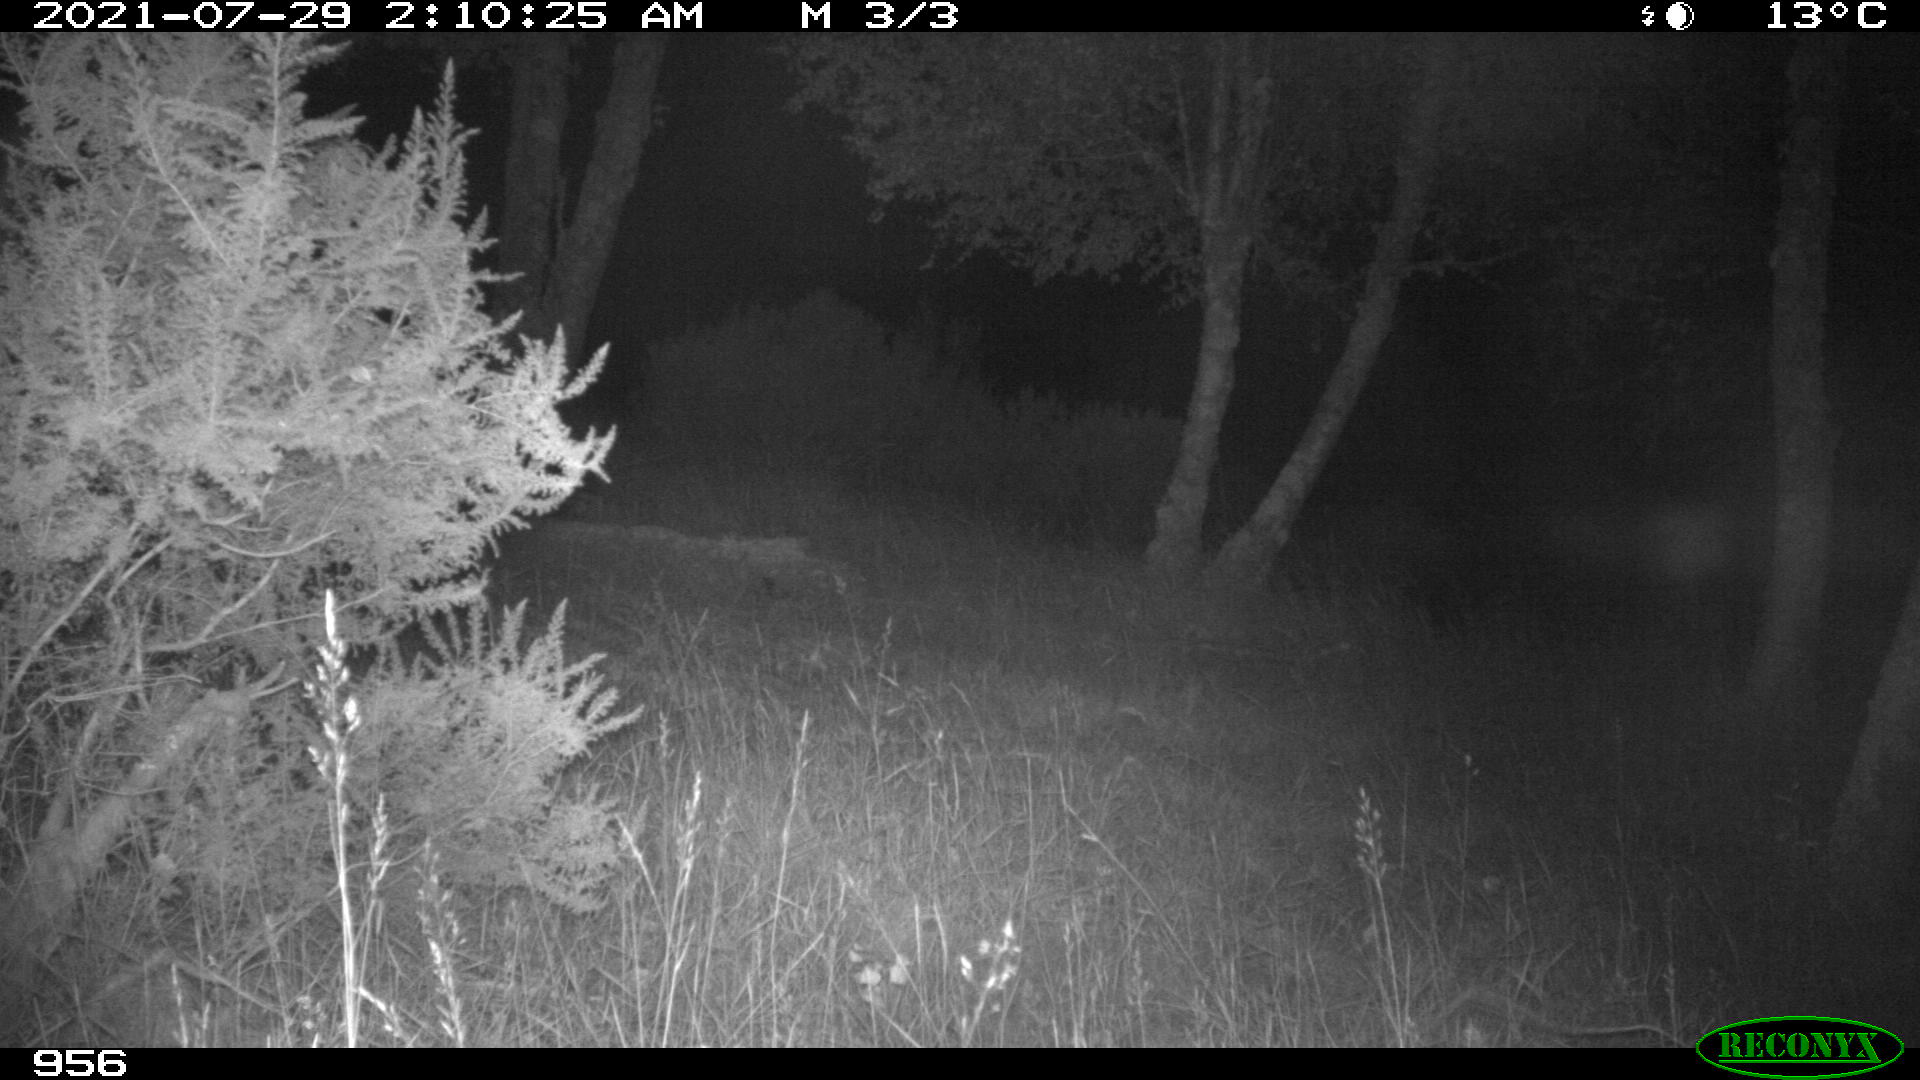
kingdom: Animalia
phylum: Chordata
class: Mammalia
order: Artiodactyla
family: Cervidae
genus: Capreolus
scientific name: Capreolus capreolus
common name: Western roe deer
